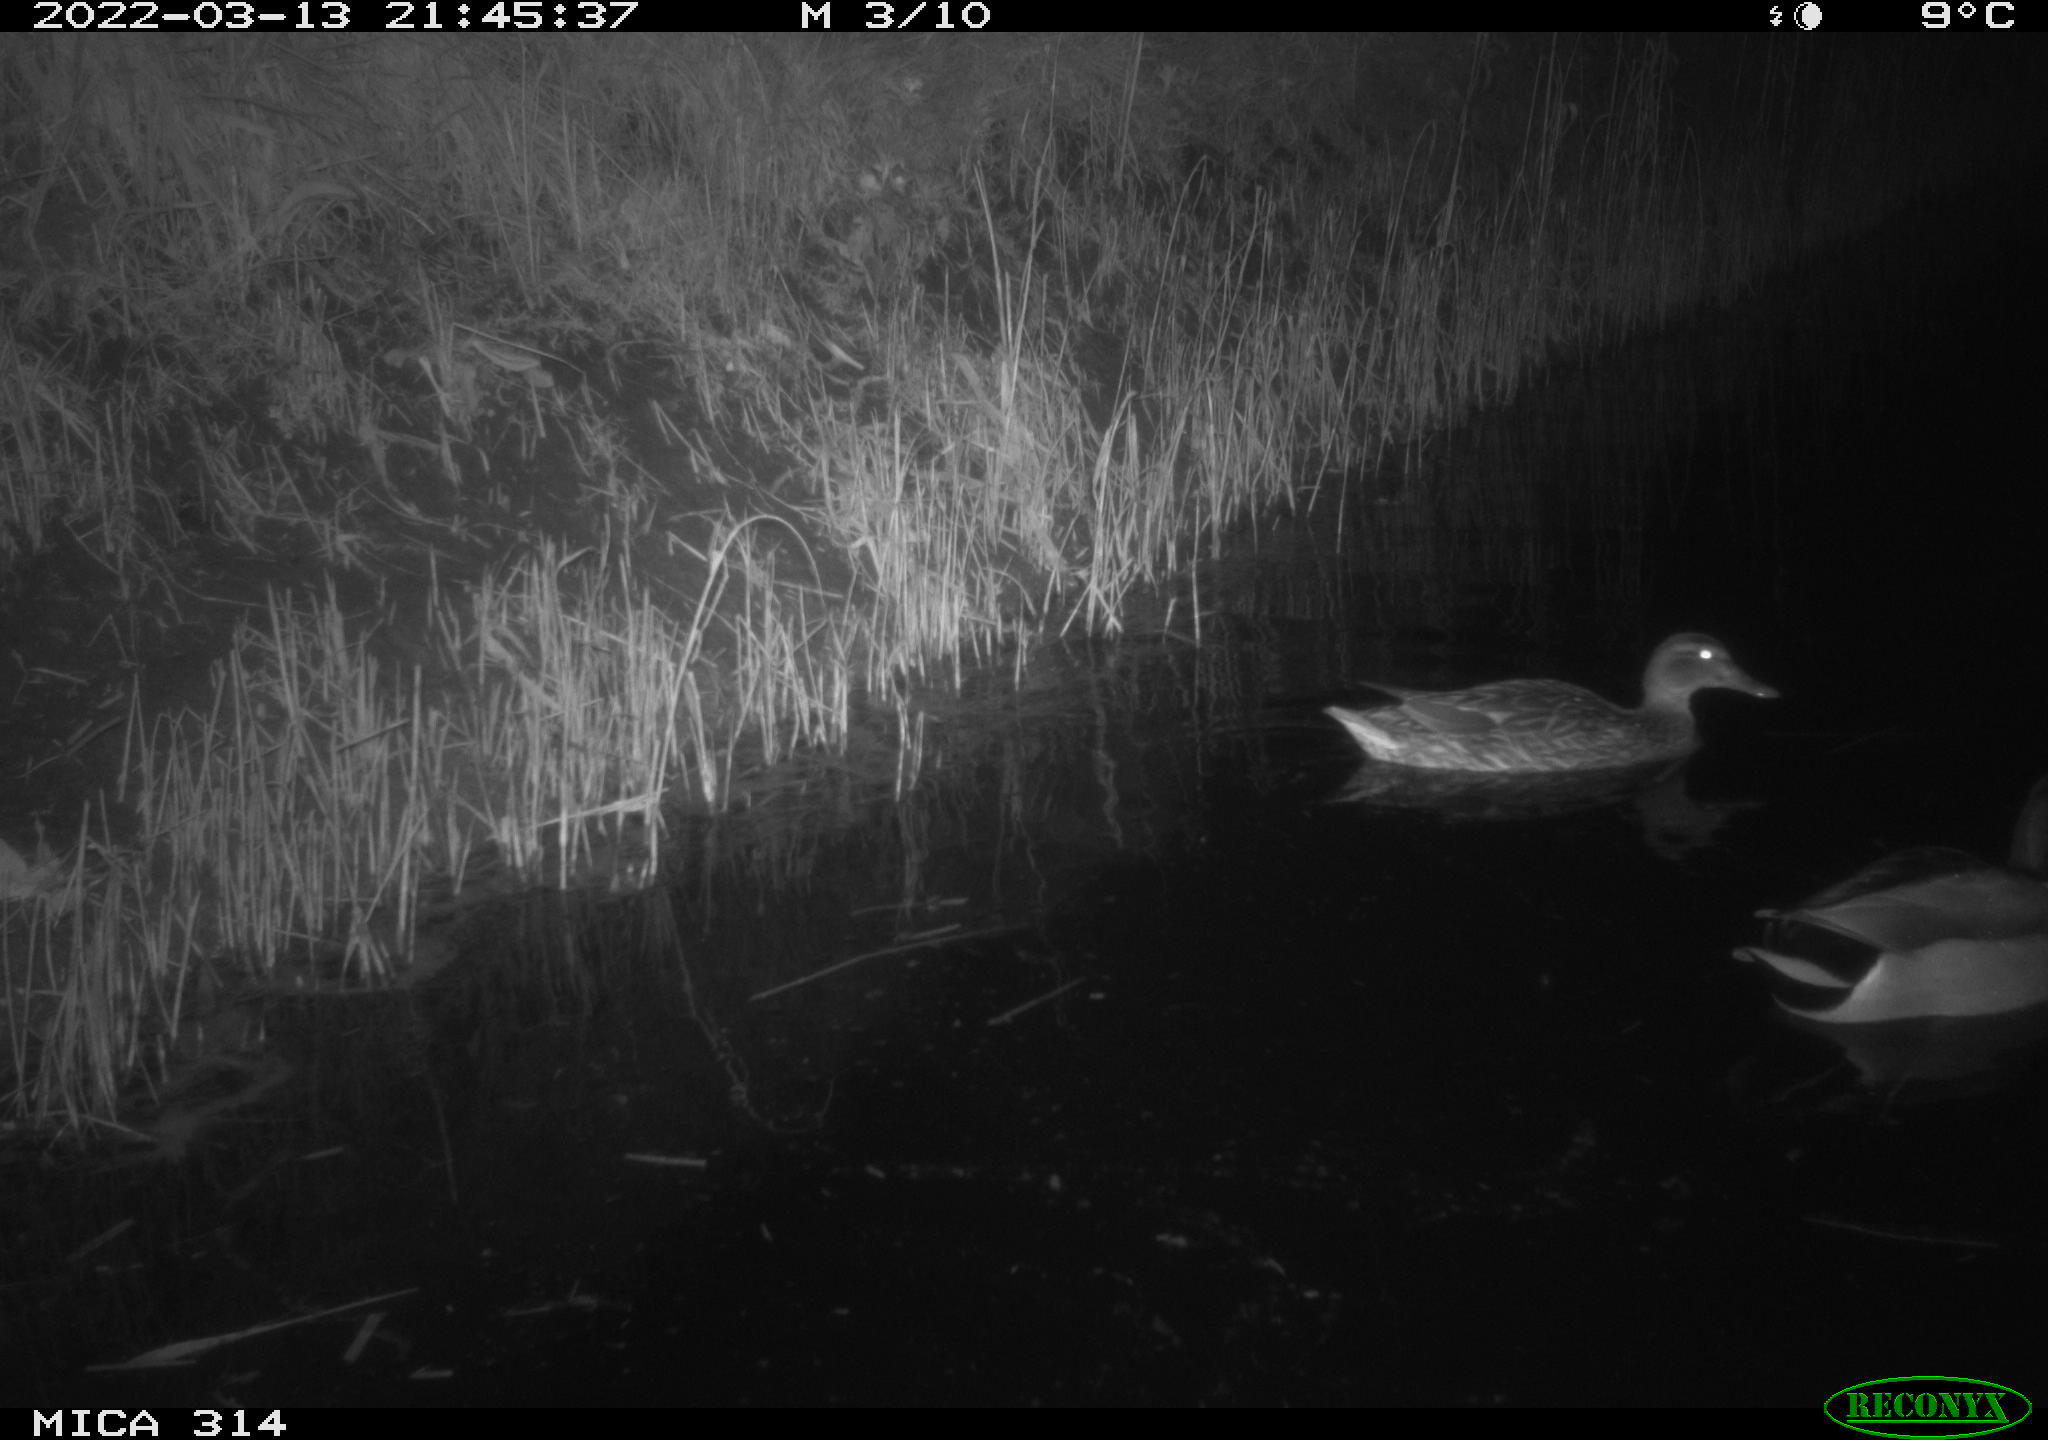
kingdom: Animalia
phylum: Chordata
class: Aves
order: Anseriformes
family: Anatidae
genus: Anas
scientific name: Anas platyrhynchos
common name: Mallard
